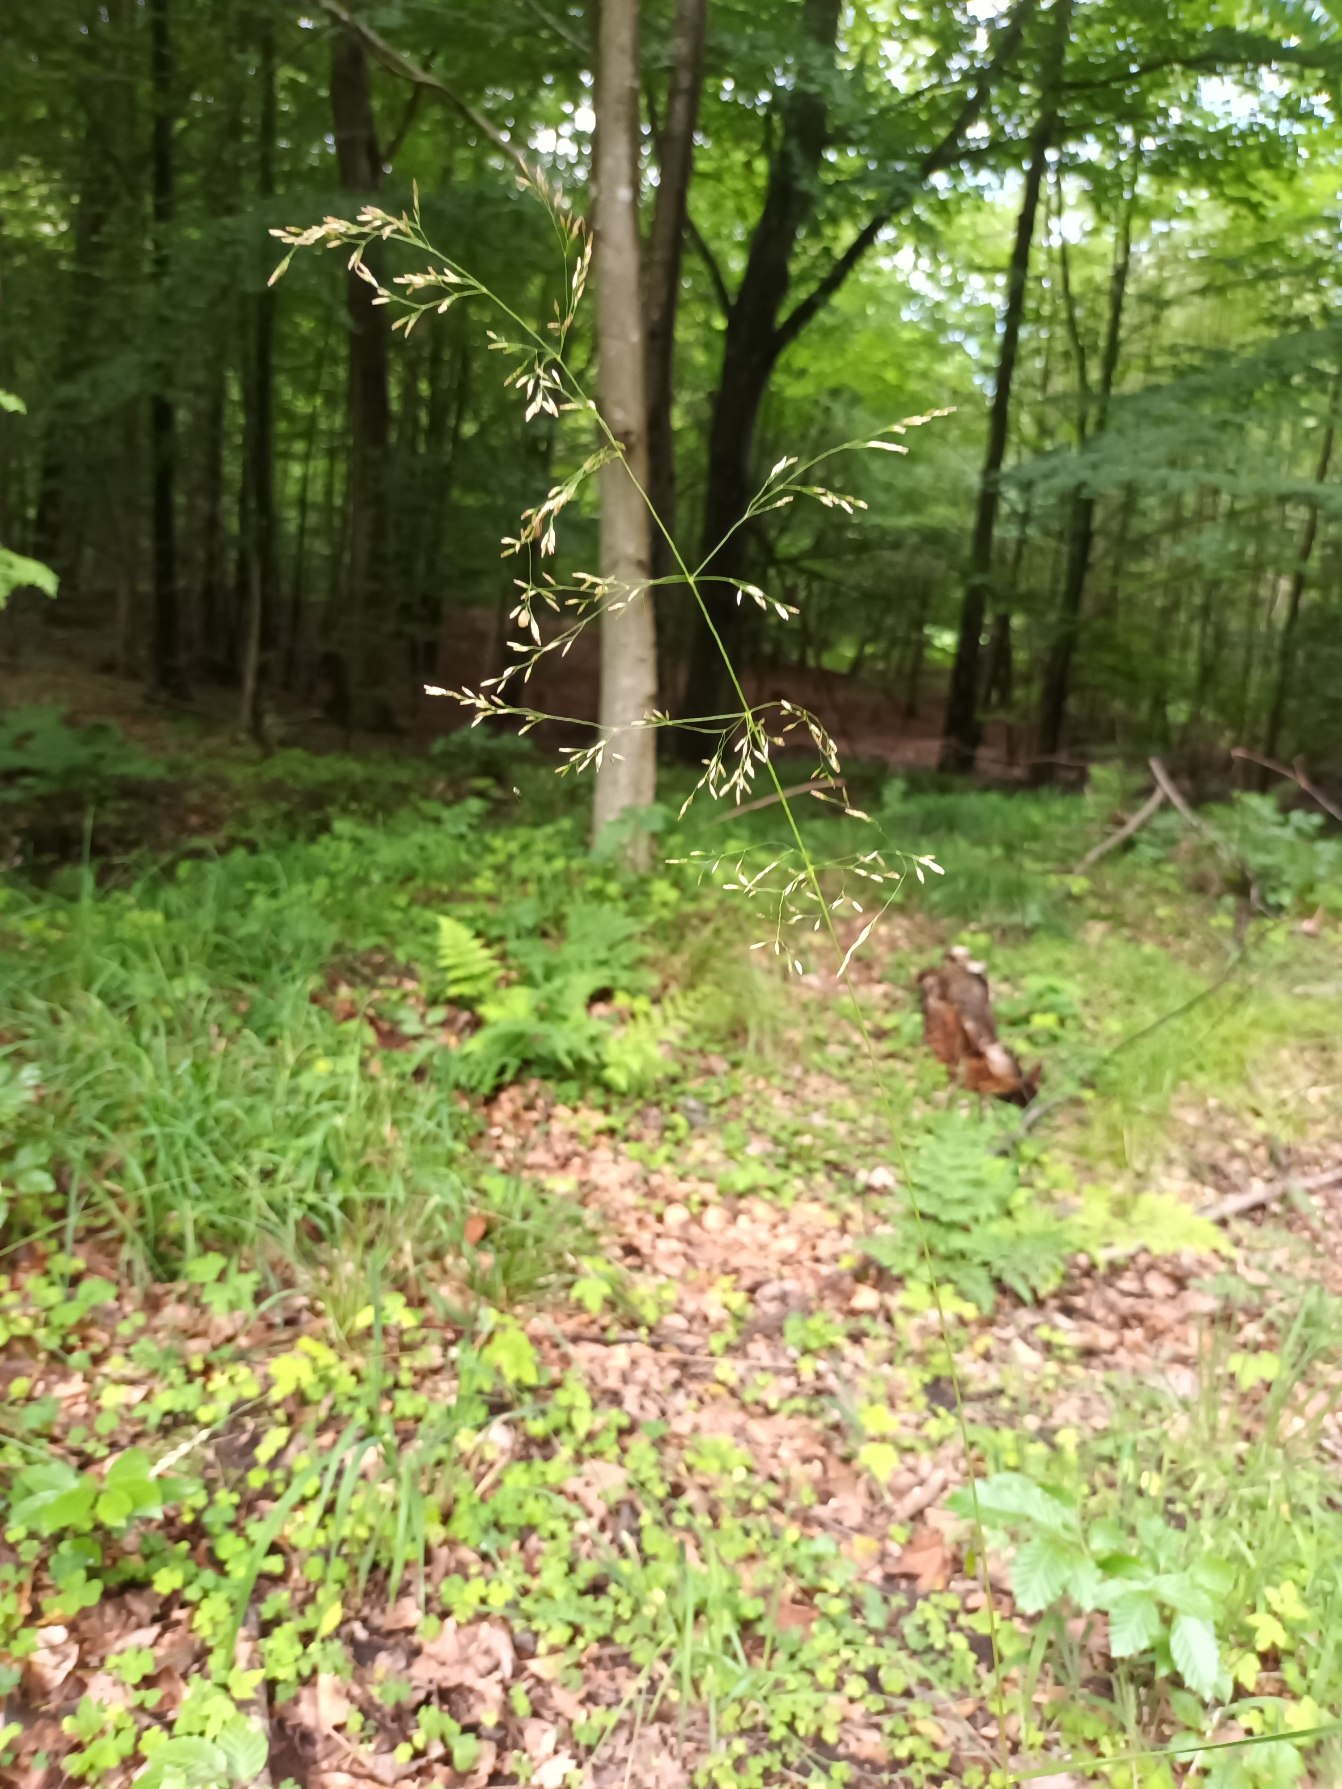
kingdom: Plantae
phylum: Tracheophyta
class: Liliopsida
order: Poales
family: Poaceae
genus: Deschampsia
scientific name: Deschampsia cespitosa
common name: Mose-bunke
